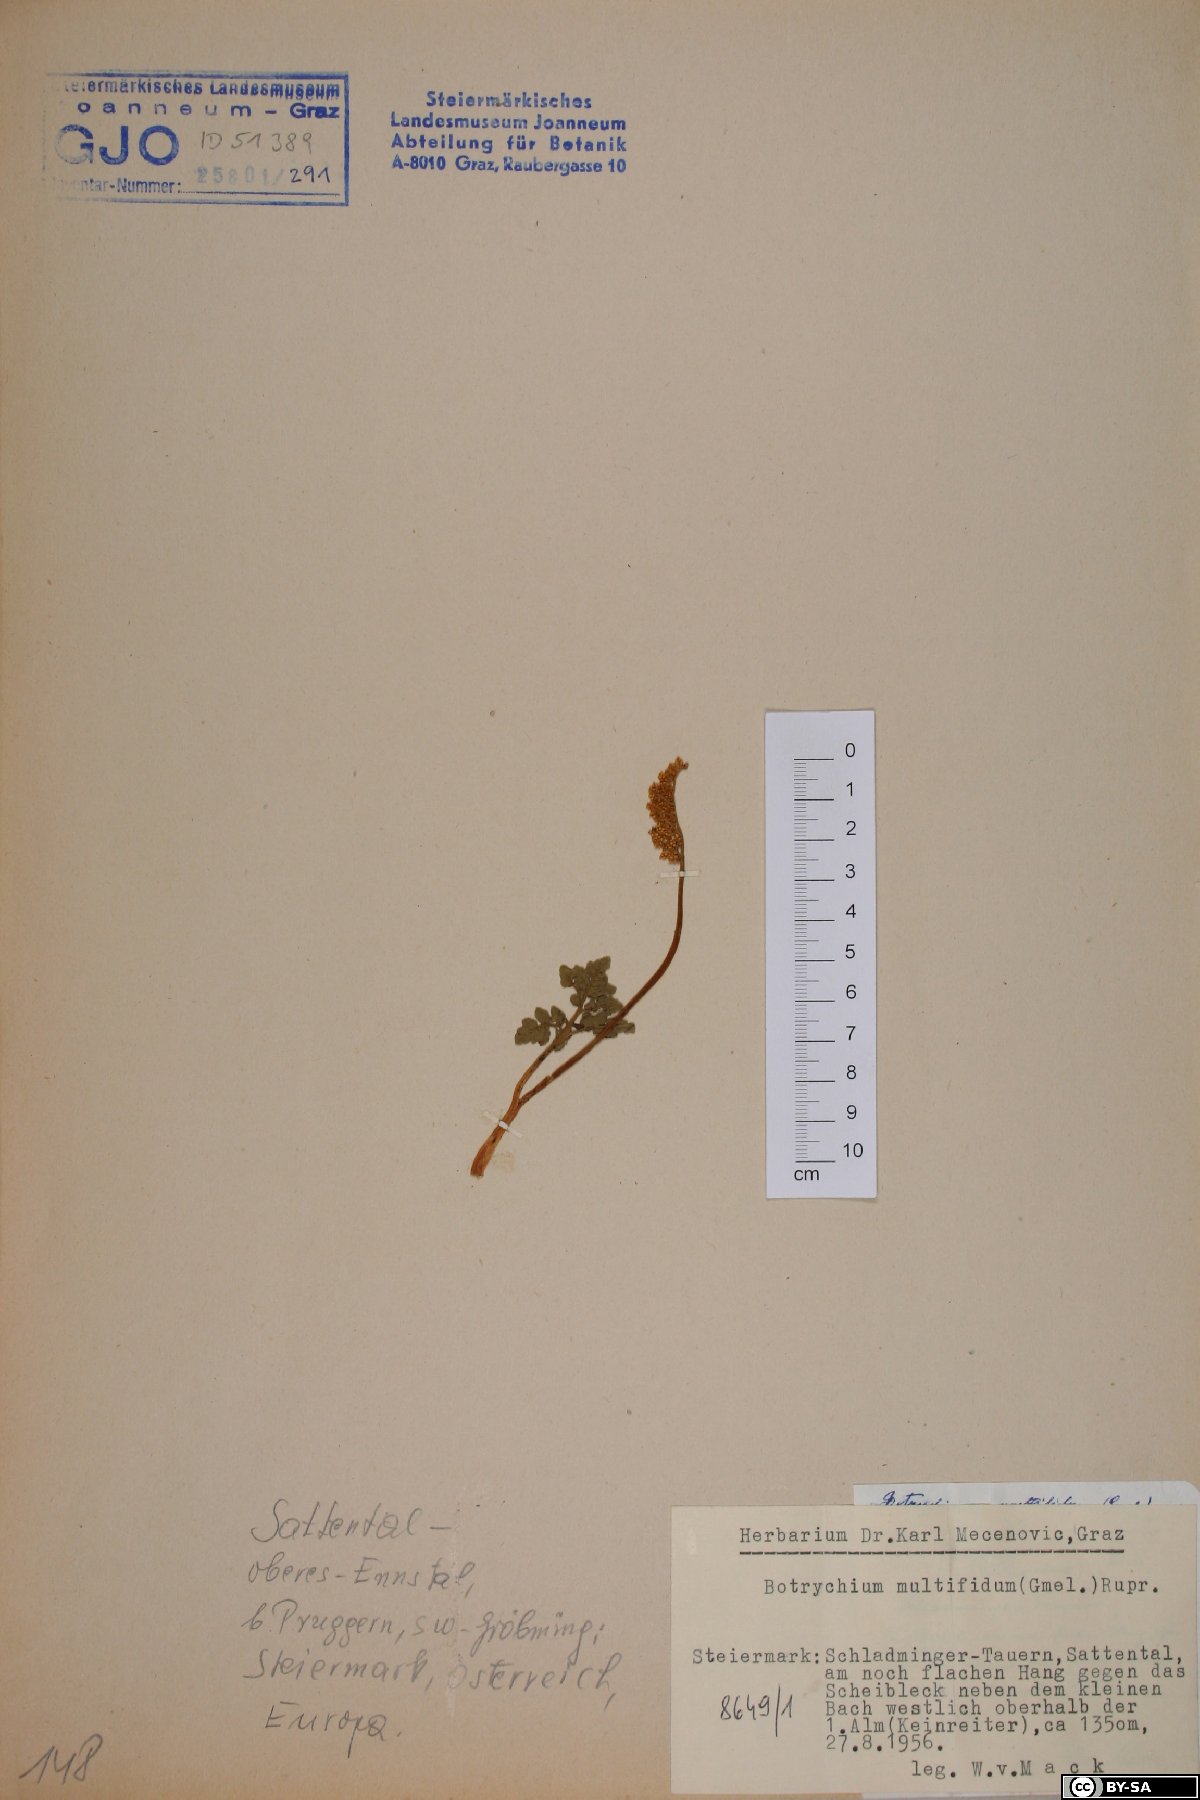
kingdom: Plantae
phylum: Tracheophyta
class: Polypodiopsida
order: Ophioglossales
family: Ophioglossaceae
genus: Sceptridium
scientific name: Sceptridium multifidum
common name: Leathery grape fern
